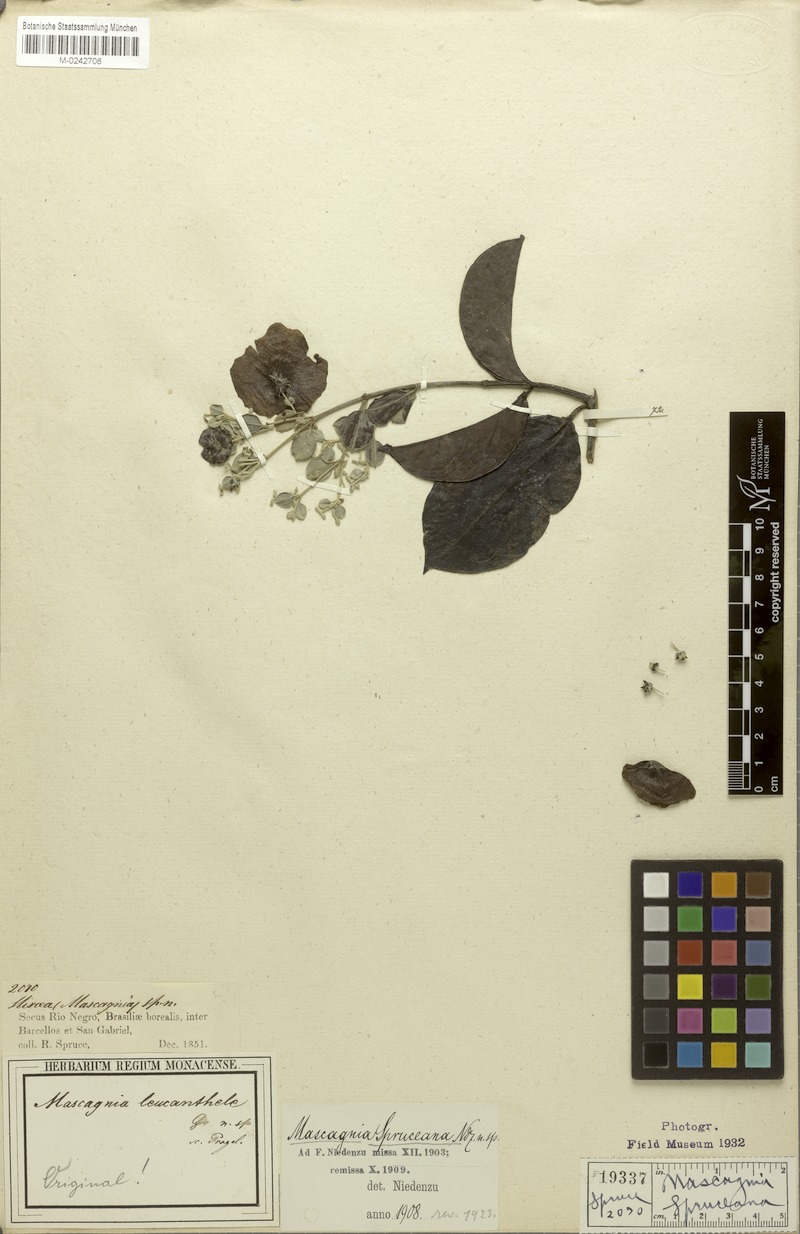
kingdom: Plantae
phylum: Tracheophyta
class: Magnoliopsida
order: Malpighiales
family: Malpighiaceae
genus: Malpighiodes
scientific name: Malpighiodes leucanthele
